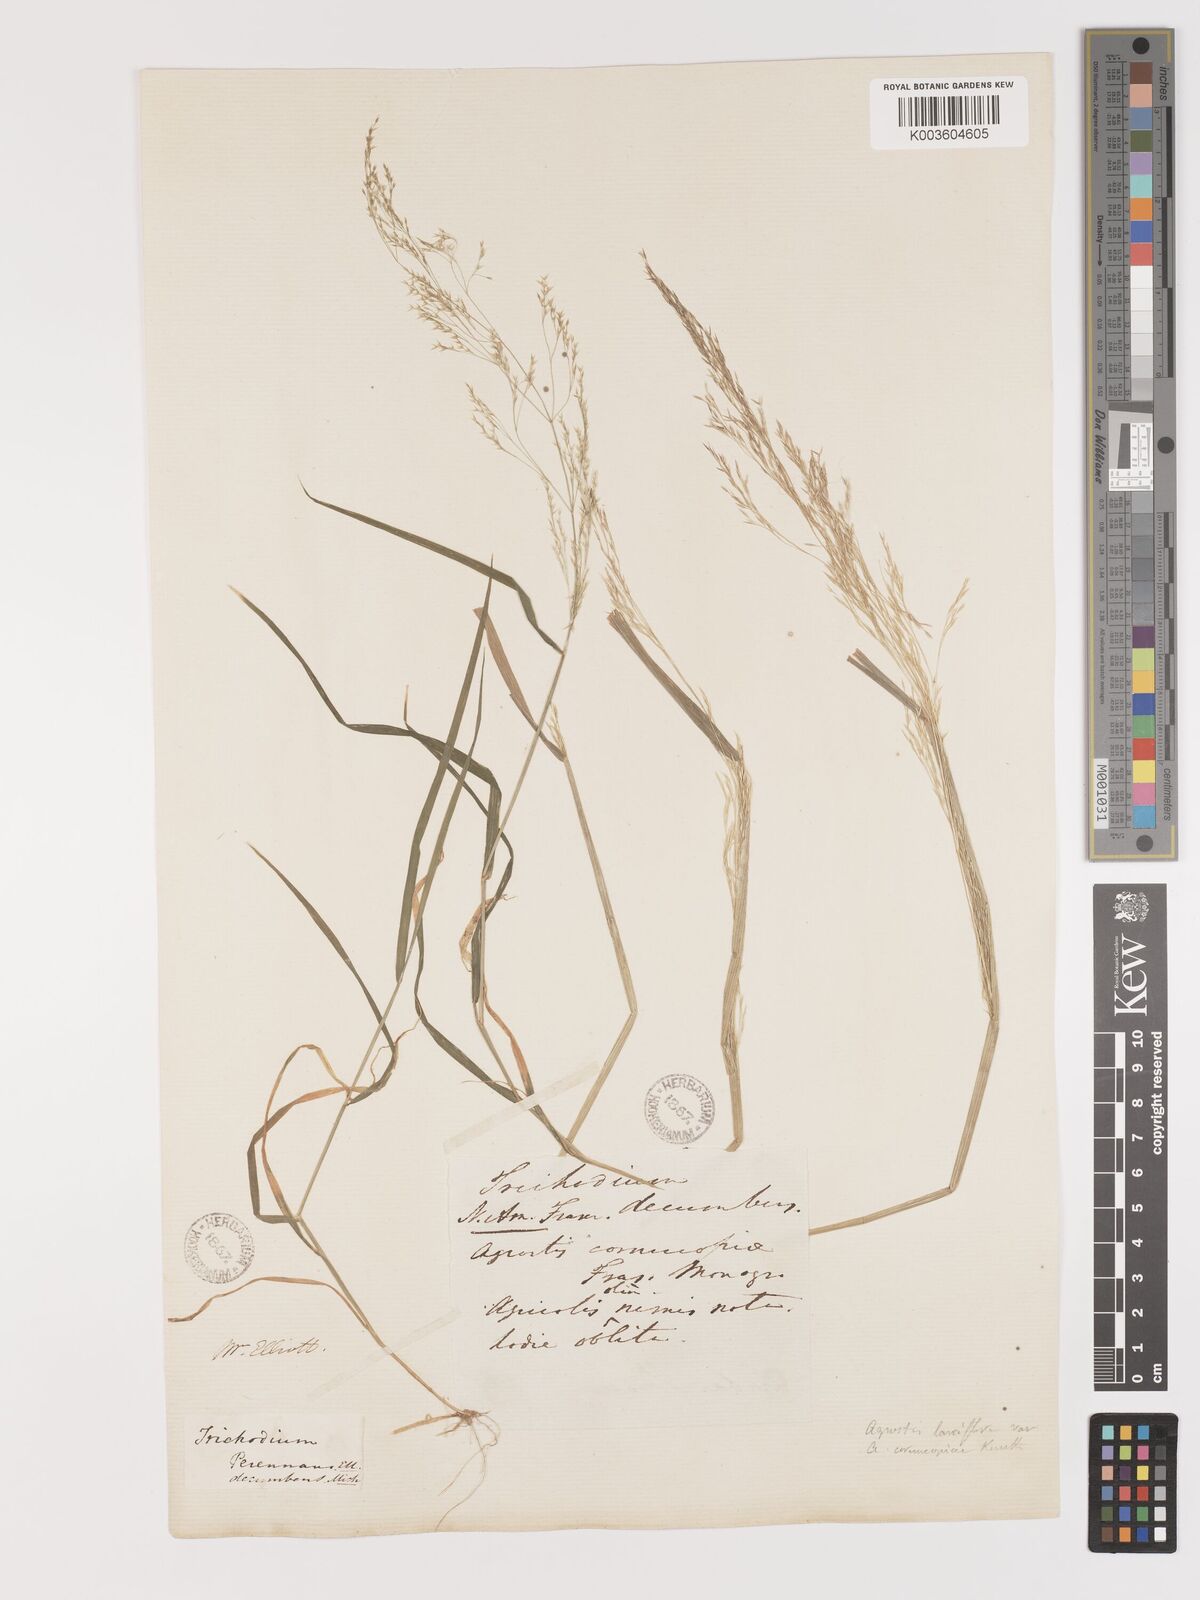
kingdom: Plantae
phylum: Tracheophyta
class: Liliopsida
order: Poales
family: Poaceae
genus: Agrostis
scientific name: Agrostis hyemalis
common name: Small bent
